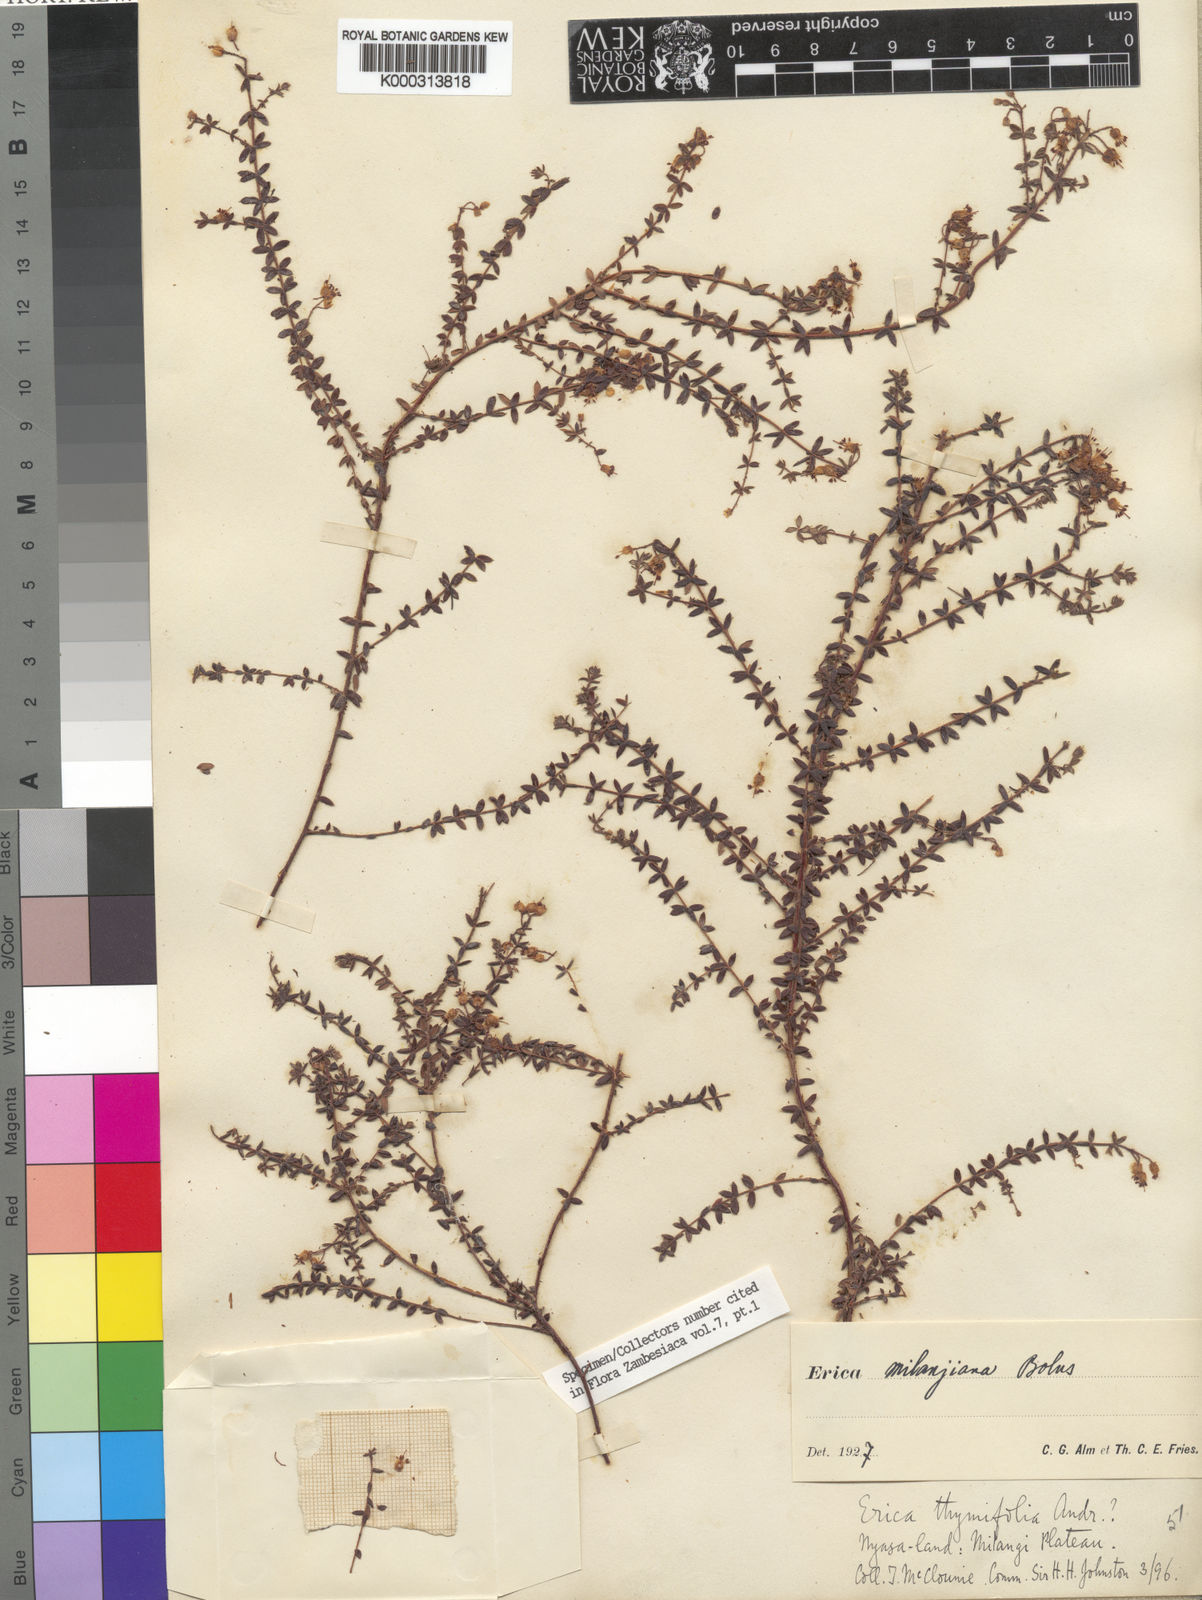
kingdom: Plantae
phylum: Tracheophyta
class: Magnoliopsida
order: Ericales
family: Ericaceae
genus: Erica
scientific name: Erica milanjiana
